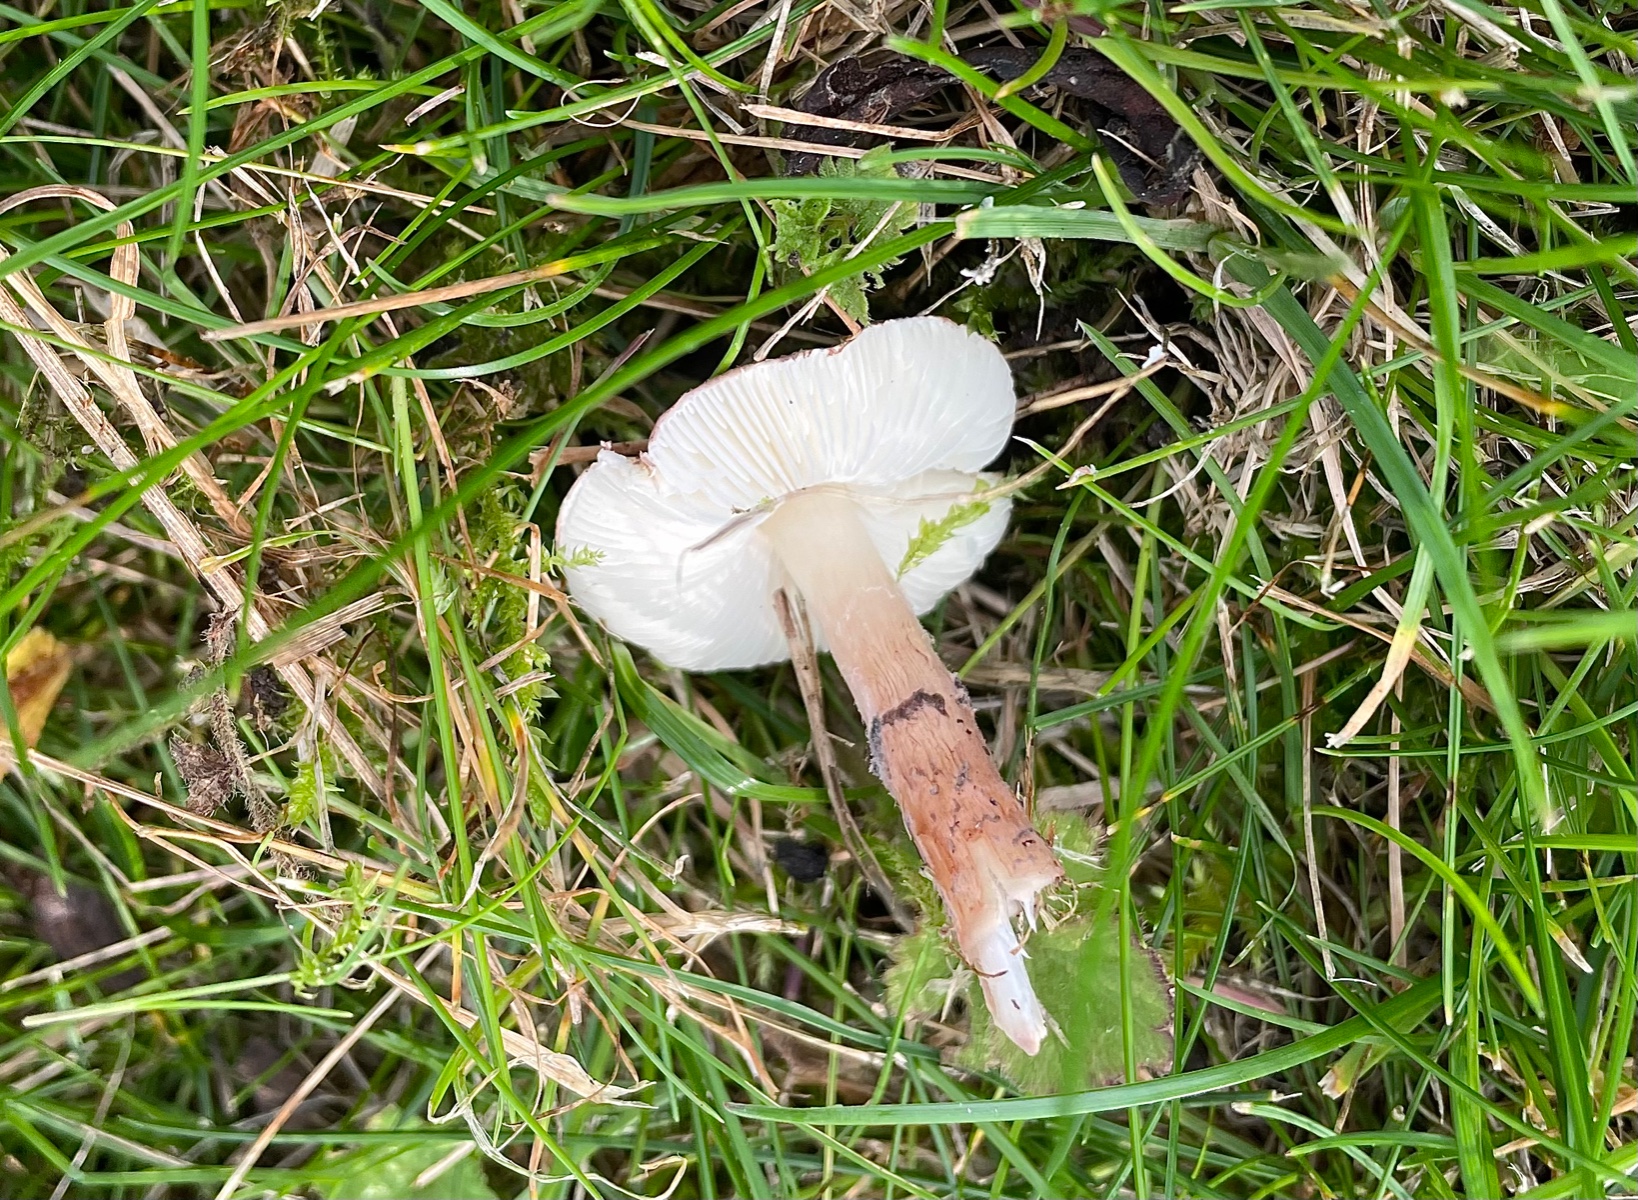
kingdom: Fungi
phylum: Basidiomycota
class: Agaricomycetes
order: Agaricales
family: Agaricaceae
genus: Lepiota
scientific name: Lepiota brunneoincarnata
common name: brunrød parasolhat
